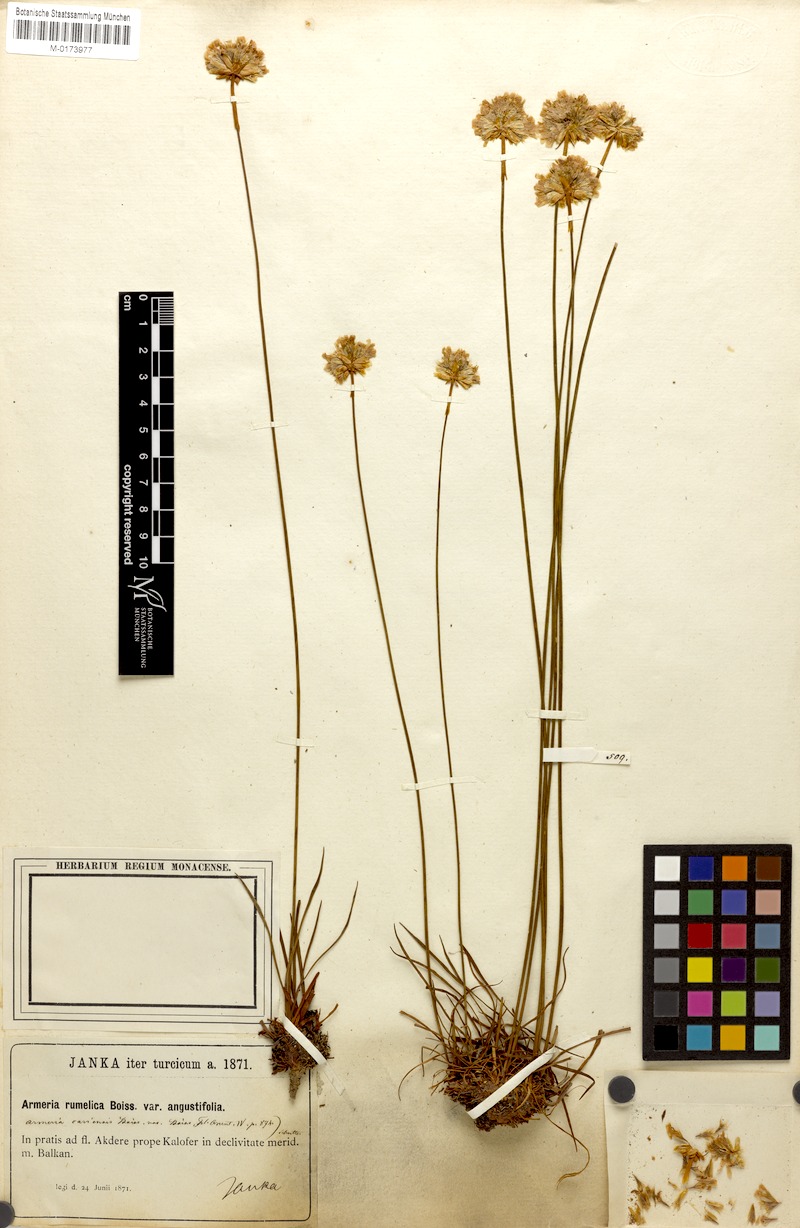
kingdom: Plantae
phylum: Tracheophyta
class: Magnoliopsida
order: Caryophyllales
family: Plumbaginaceae
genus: Armeria
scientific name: Armeria rumelica
